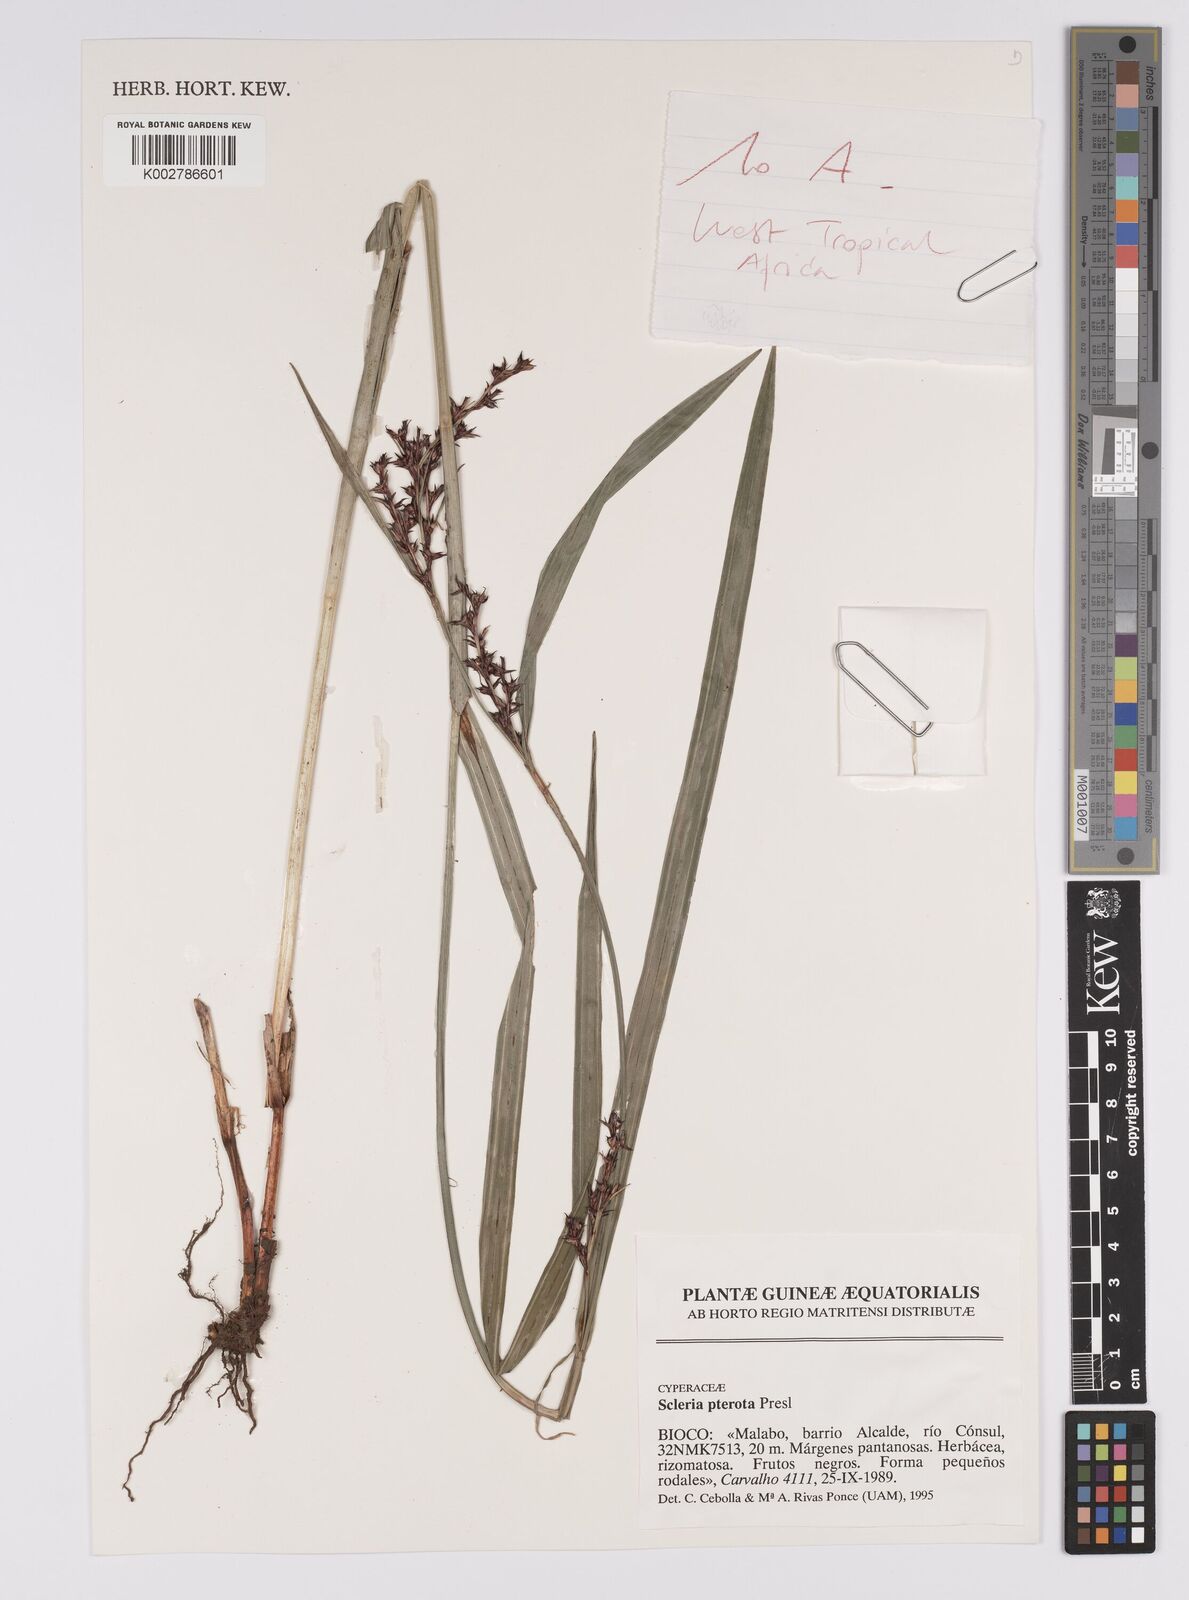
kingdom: Plantae
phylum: Tracheophyta
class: Liliopsida
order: Poales
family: Cyperaceae
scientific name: Cyperaceae
